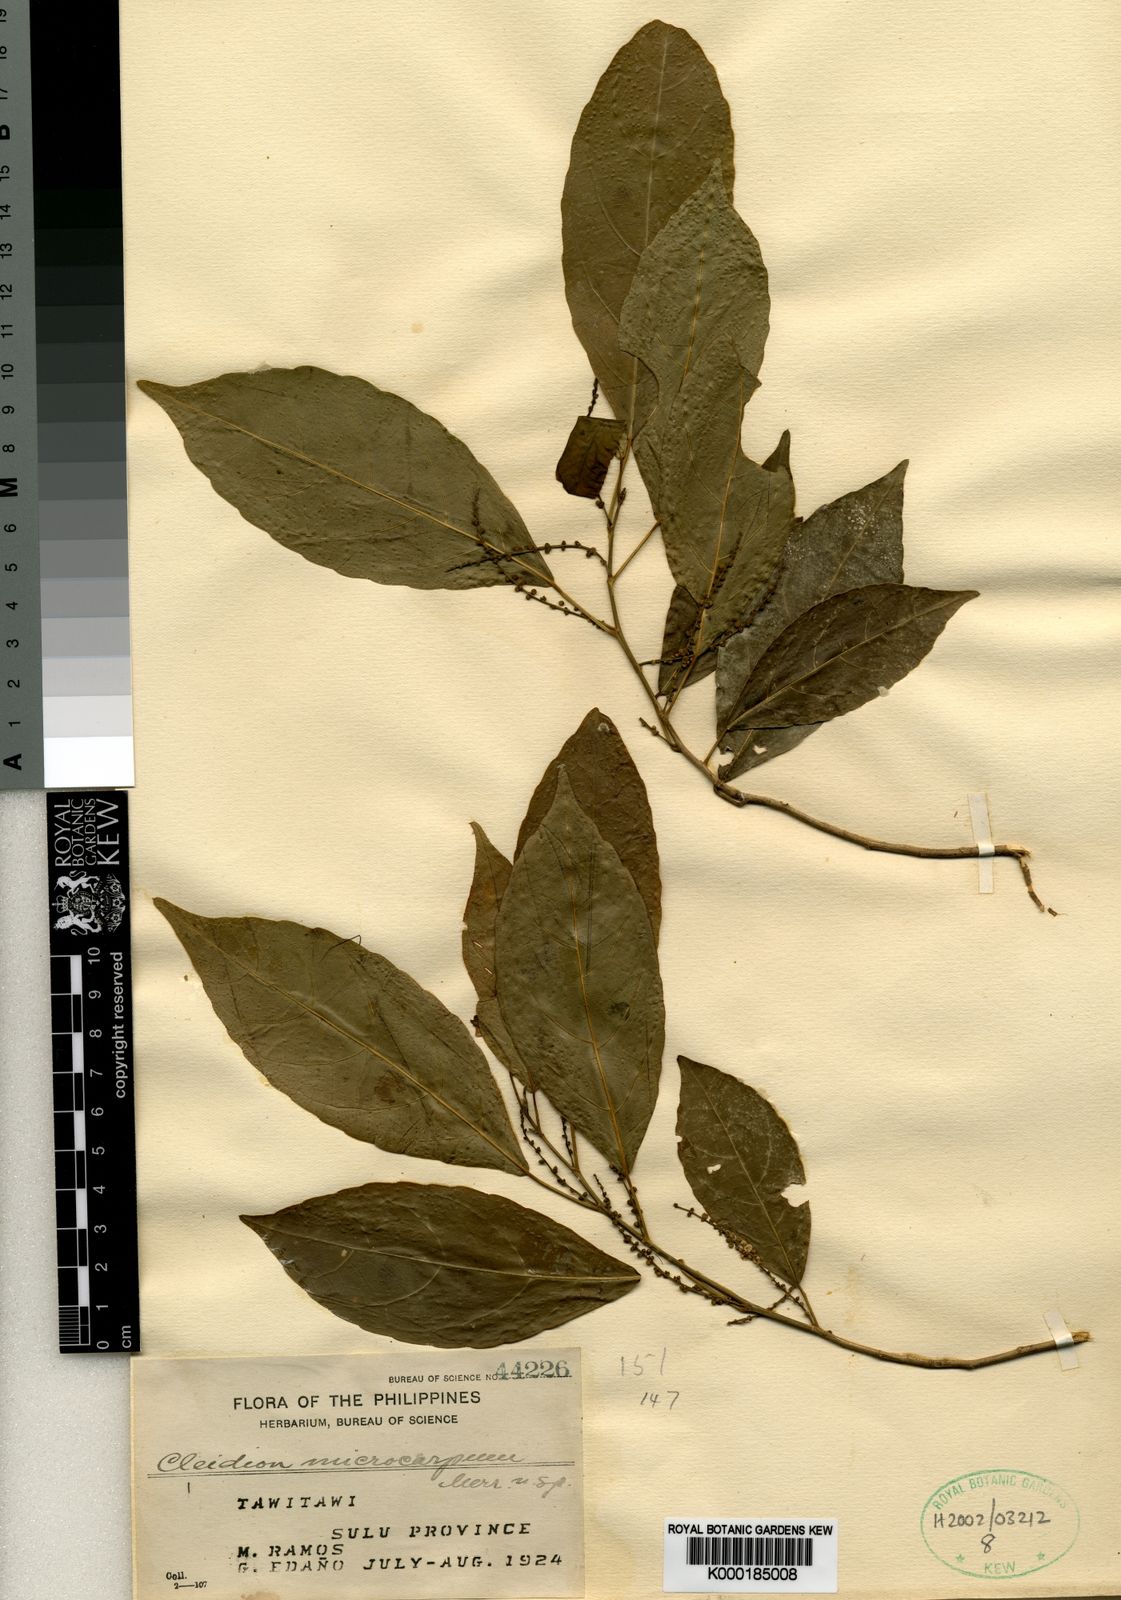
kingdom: Plantae
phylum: Tracheophyta
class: Magnoliopsida
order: Malpighiales
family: Euphorbiaceae
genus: Cleidion
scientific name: Cleidion microcarpum
